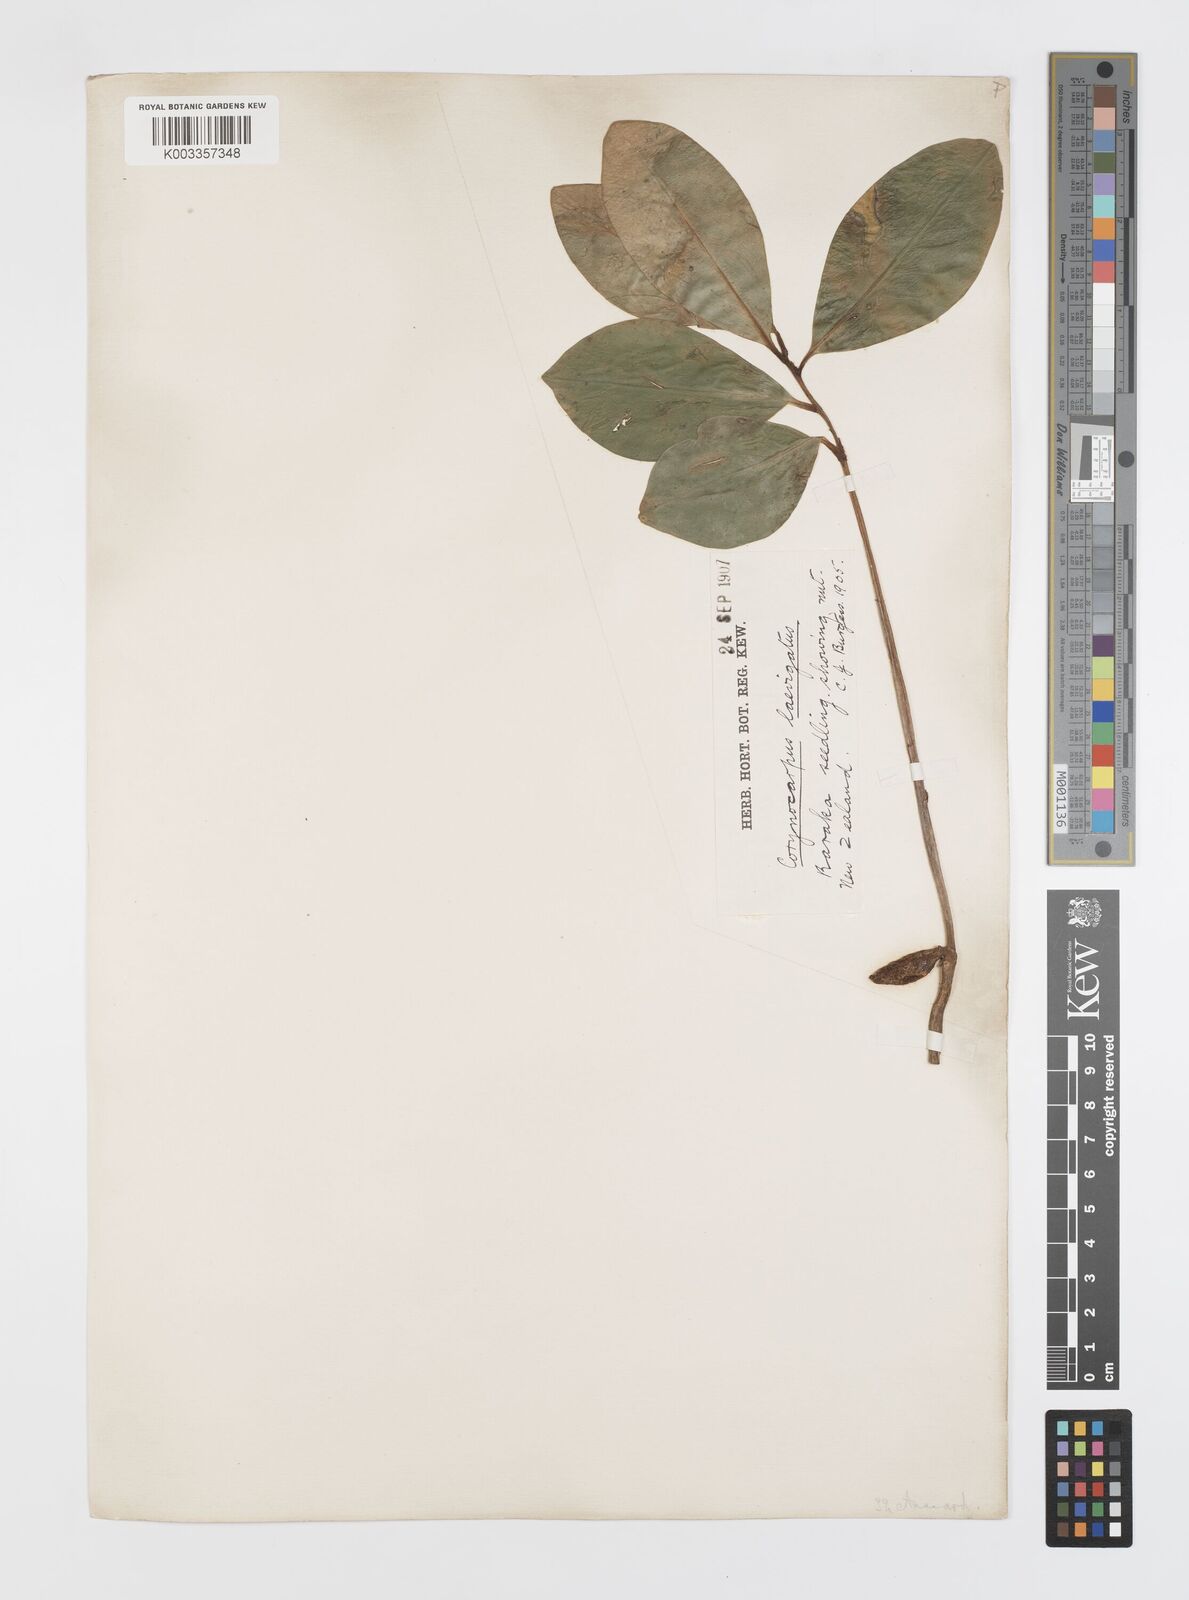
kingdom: Plantae
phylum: Tracheophyta
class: Magnoliopsida
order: Cucurbitales
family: Corynocarpaceae
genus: Corynocarpus
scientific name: Corynocarpus laevigatus
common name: New zealand laurel
